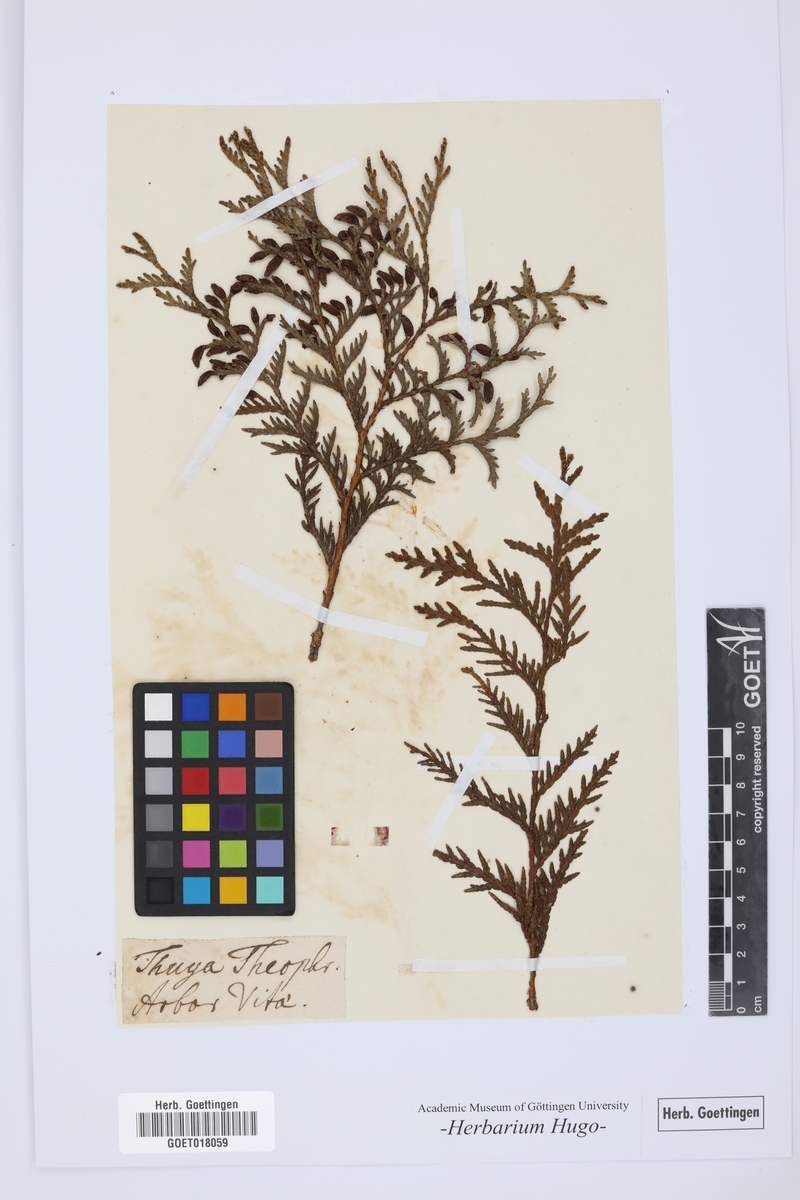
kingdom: Plantae
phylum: Tracheophyta
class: Pinopsida
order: Pinales
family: Cupressaceae
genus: Thuja
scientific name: Thuja occidentalis
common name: Northern white-cedar
